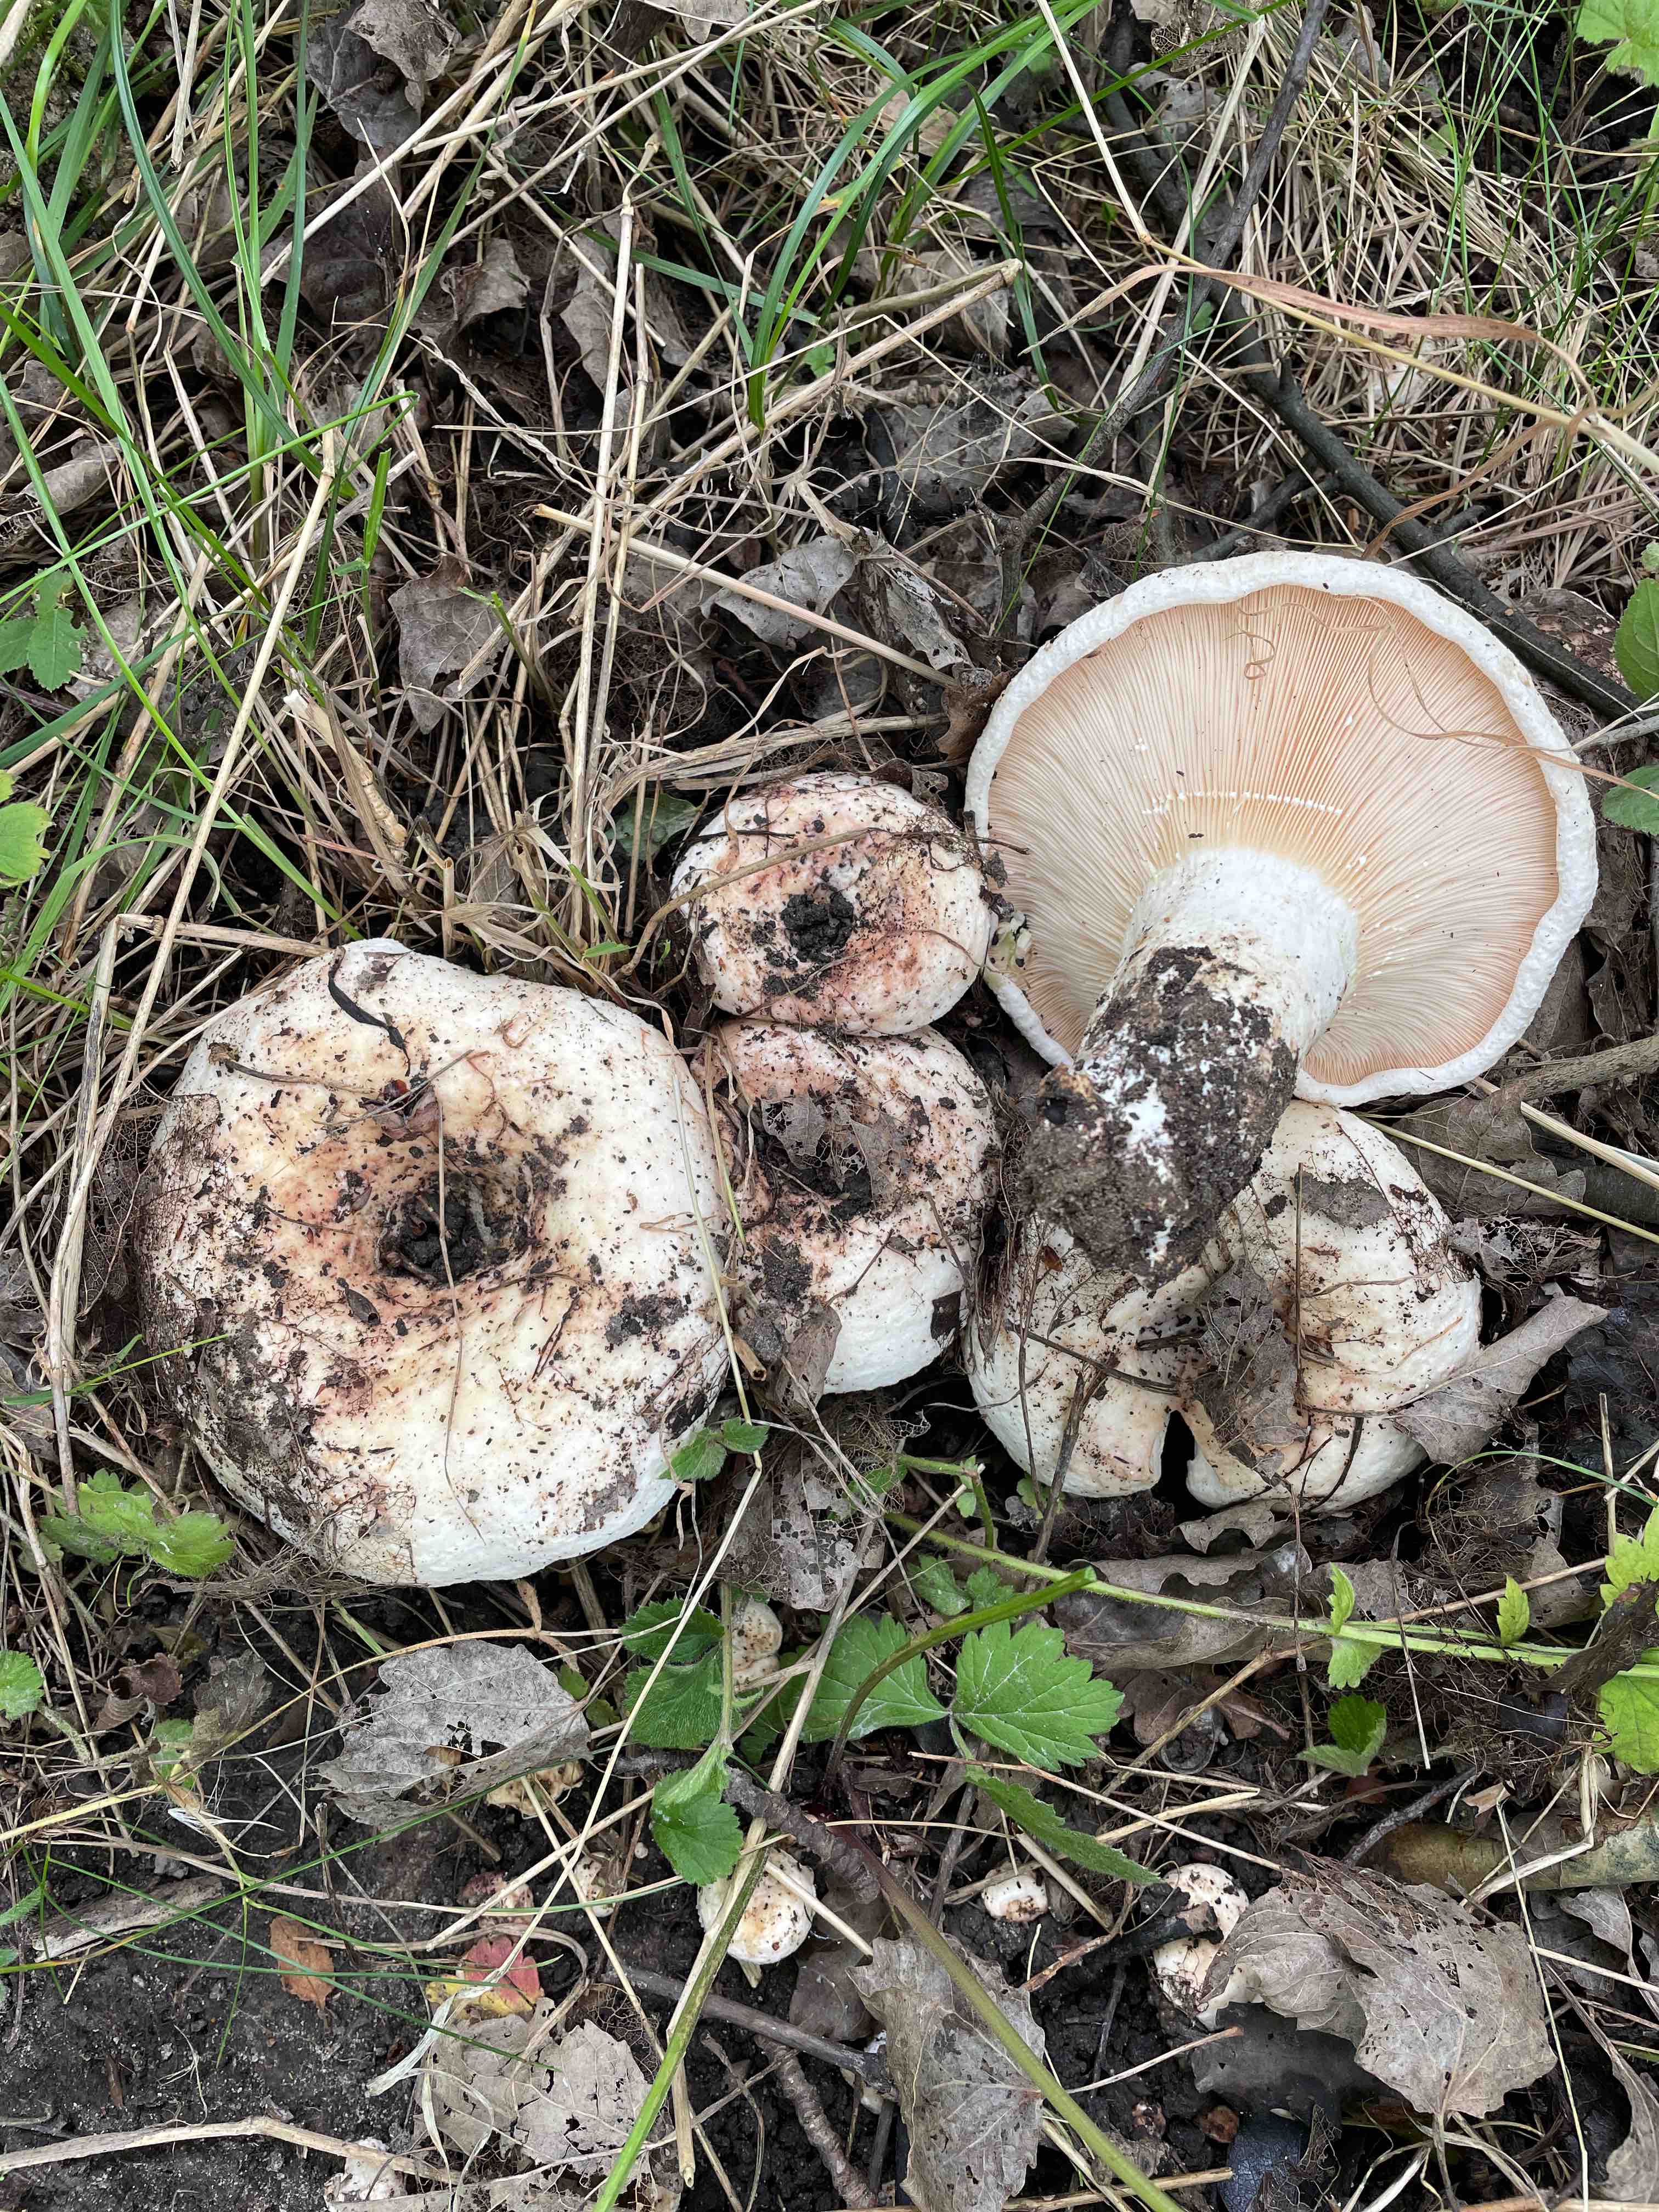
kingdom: Fungi
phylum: Basidiomycota
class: Agaricomycetes
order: Russulales
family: Russulaceae
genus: Lactarius
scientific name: Lactarius controversus
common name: rosabladet mælkehat
